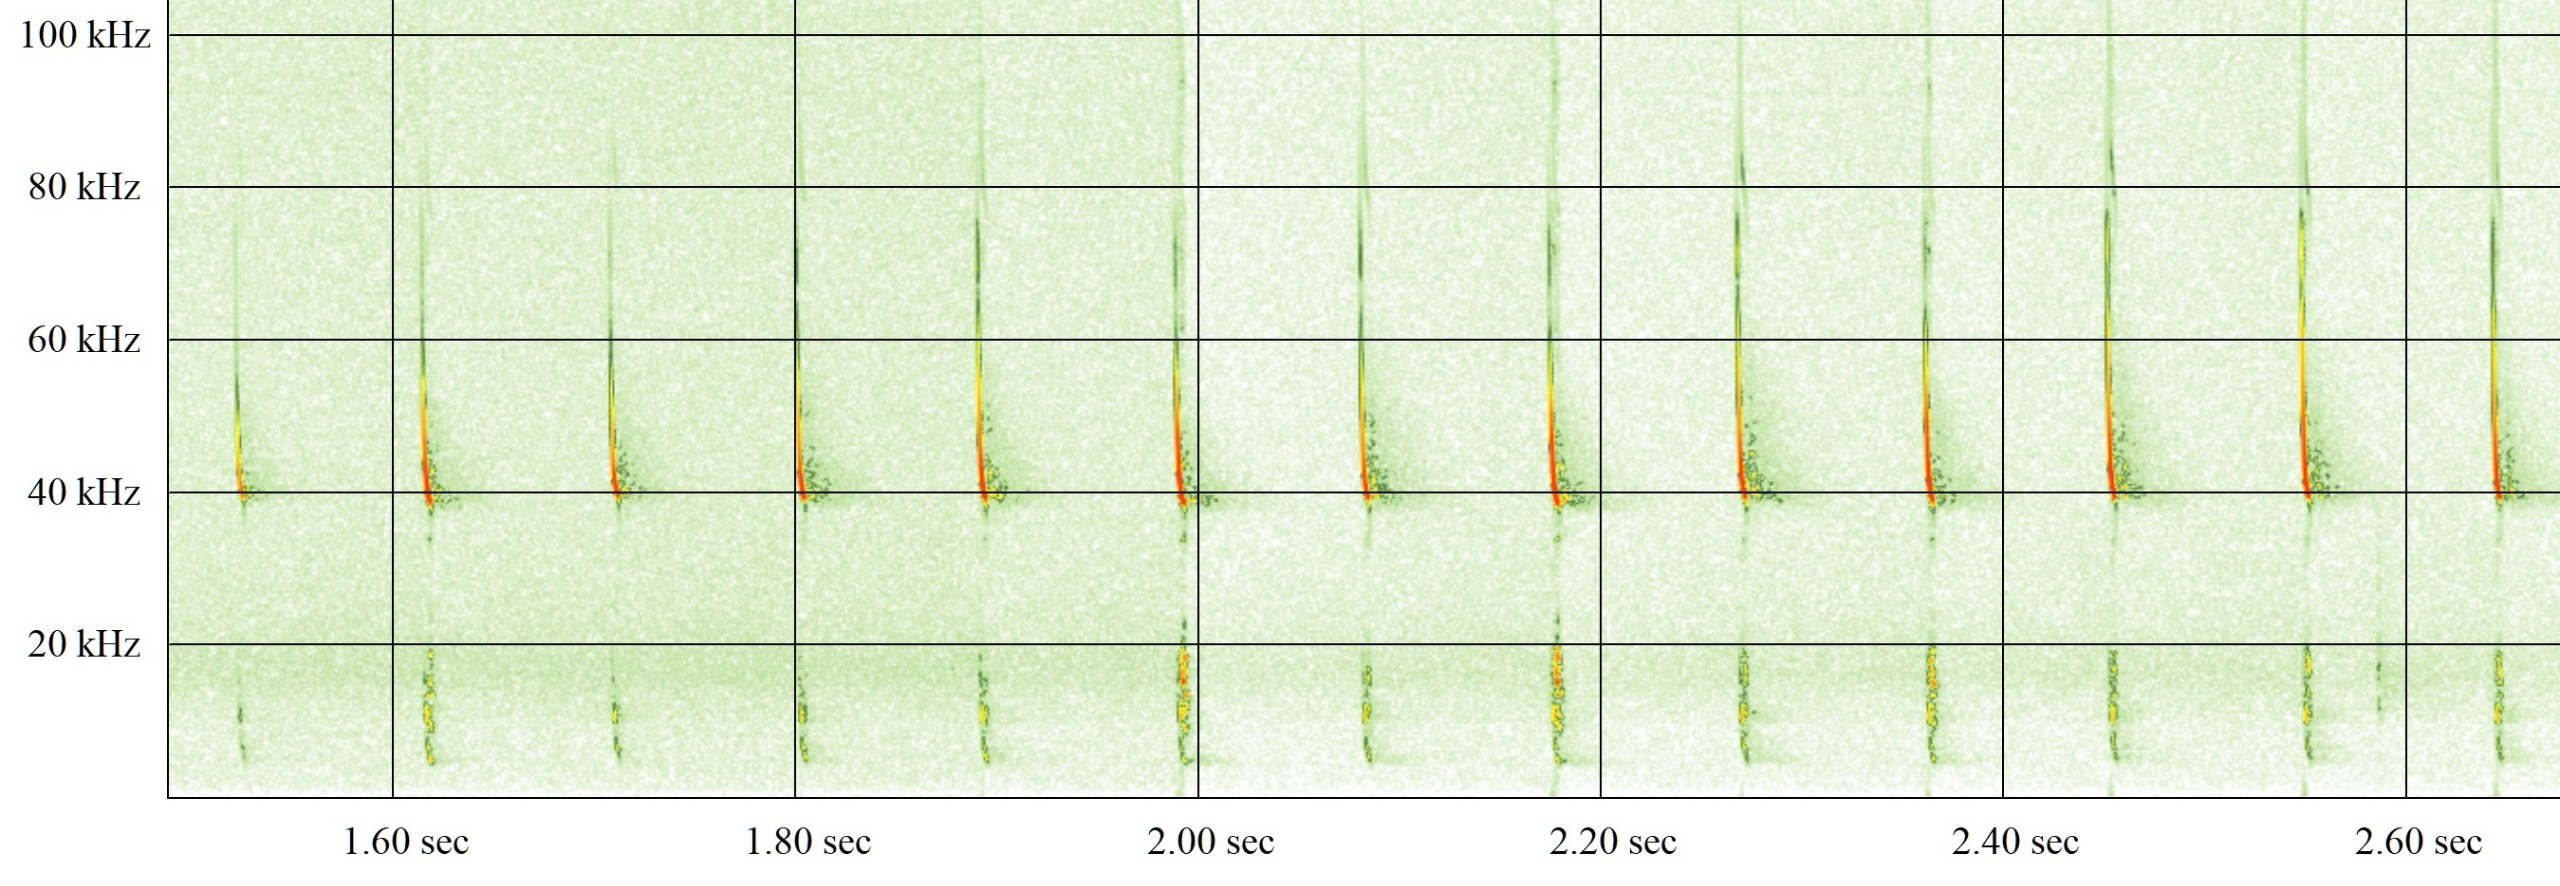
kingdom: Animalia
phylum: Chordata
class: Mammalia
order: Chiroptera
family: Vespertilionidae
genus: Pipistrellus
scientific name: Pipistrellus nathusii
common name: Troldflagermus
